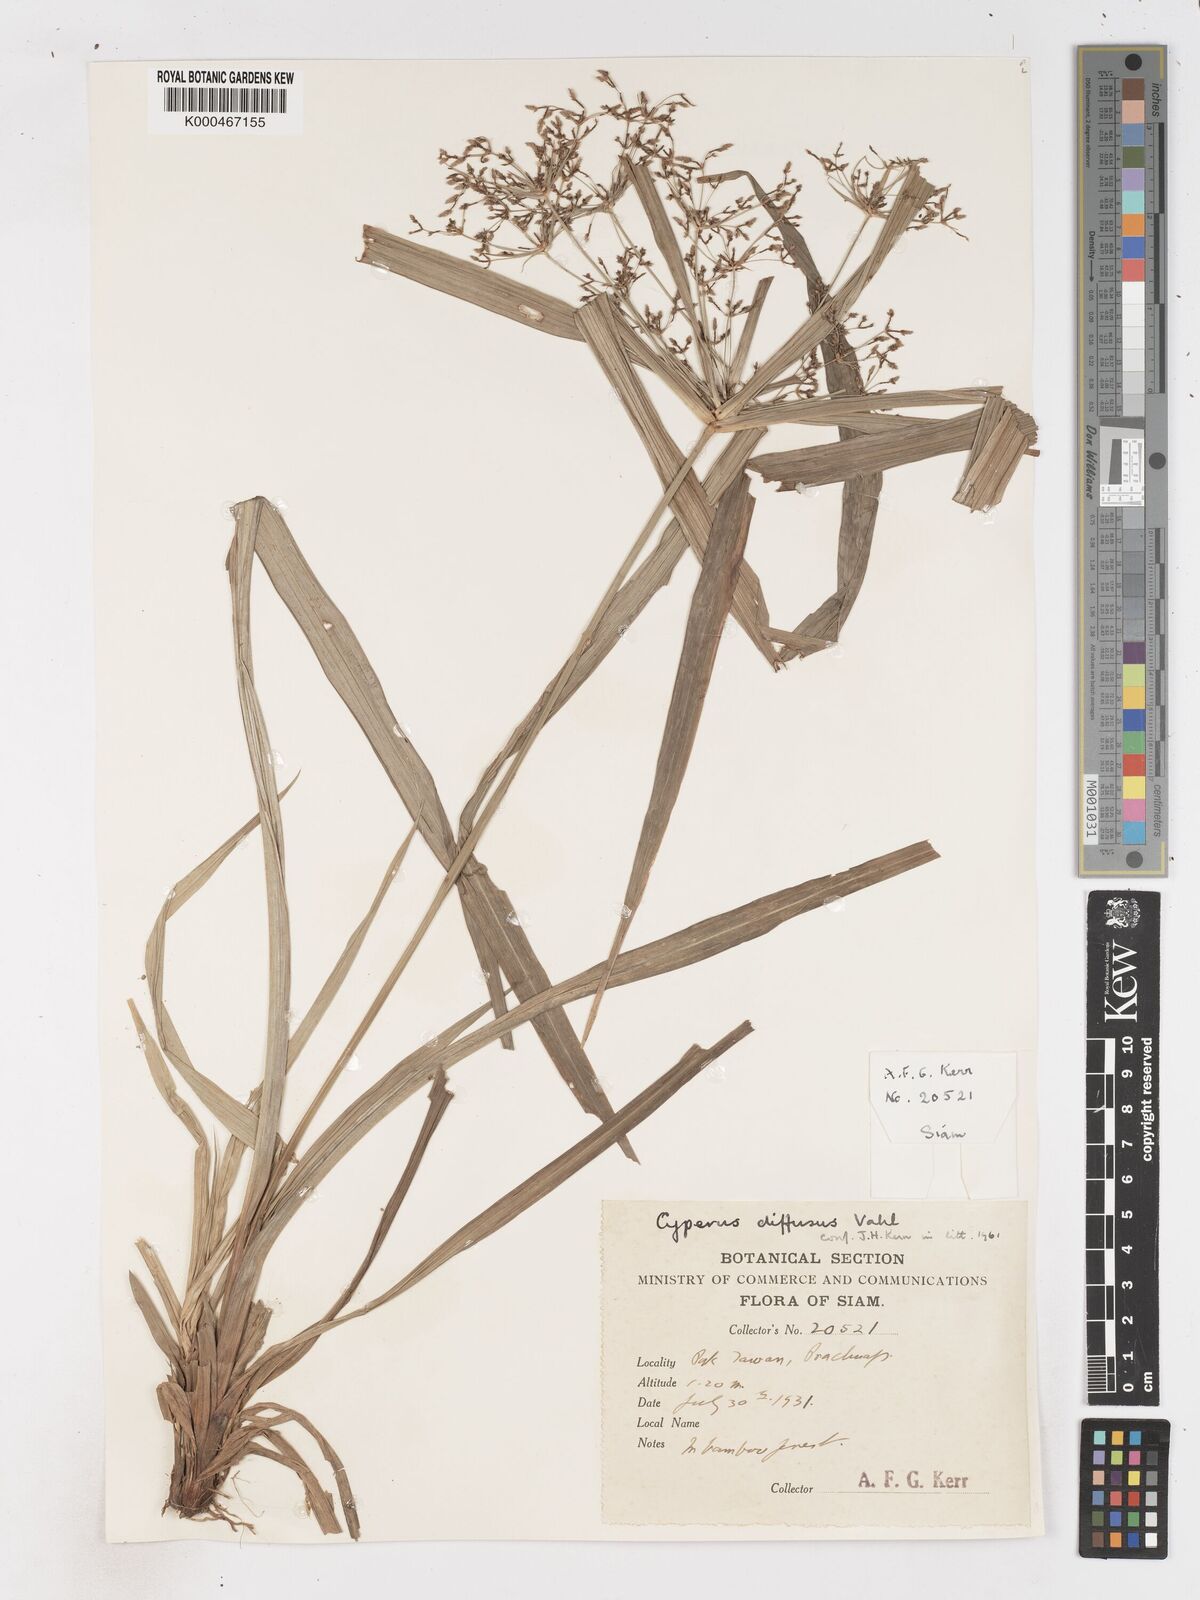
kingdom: Plantae
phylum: Tracheophyta
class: Liliopsida
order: Poales
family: Cyperaceae
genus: Cyperus
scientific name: Cyperus diffusus
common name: Dwarf umbrella grass
